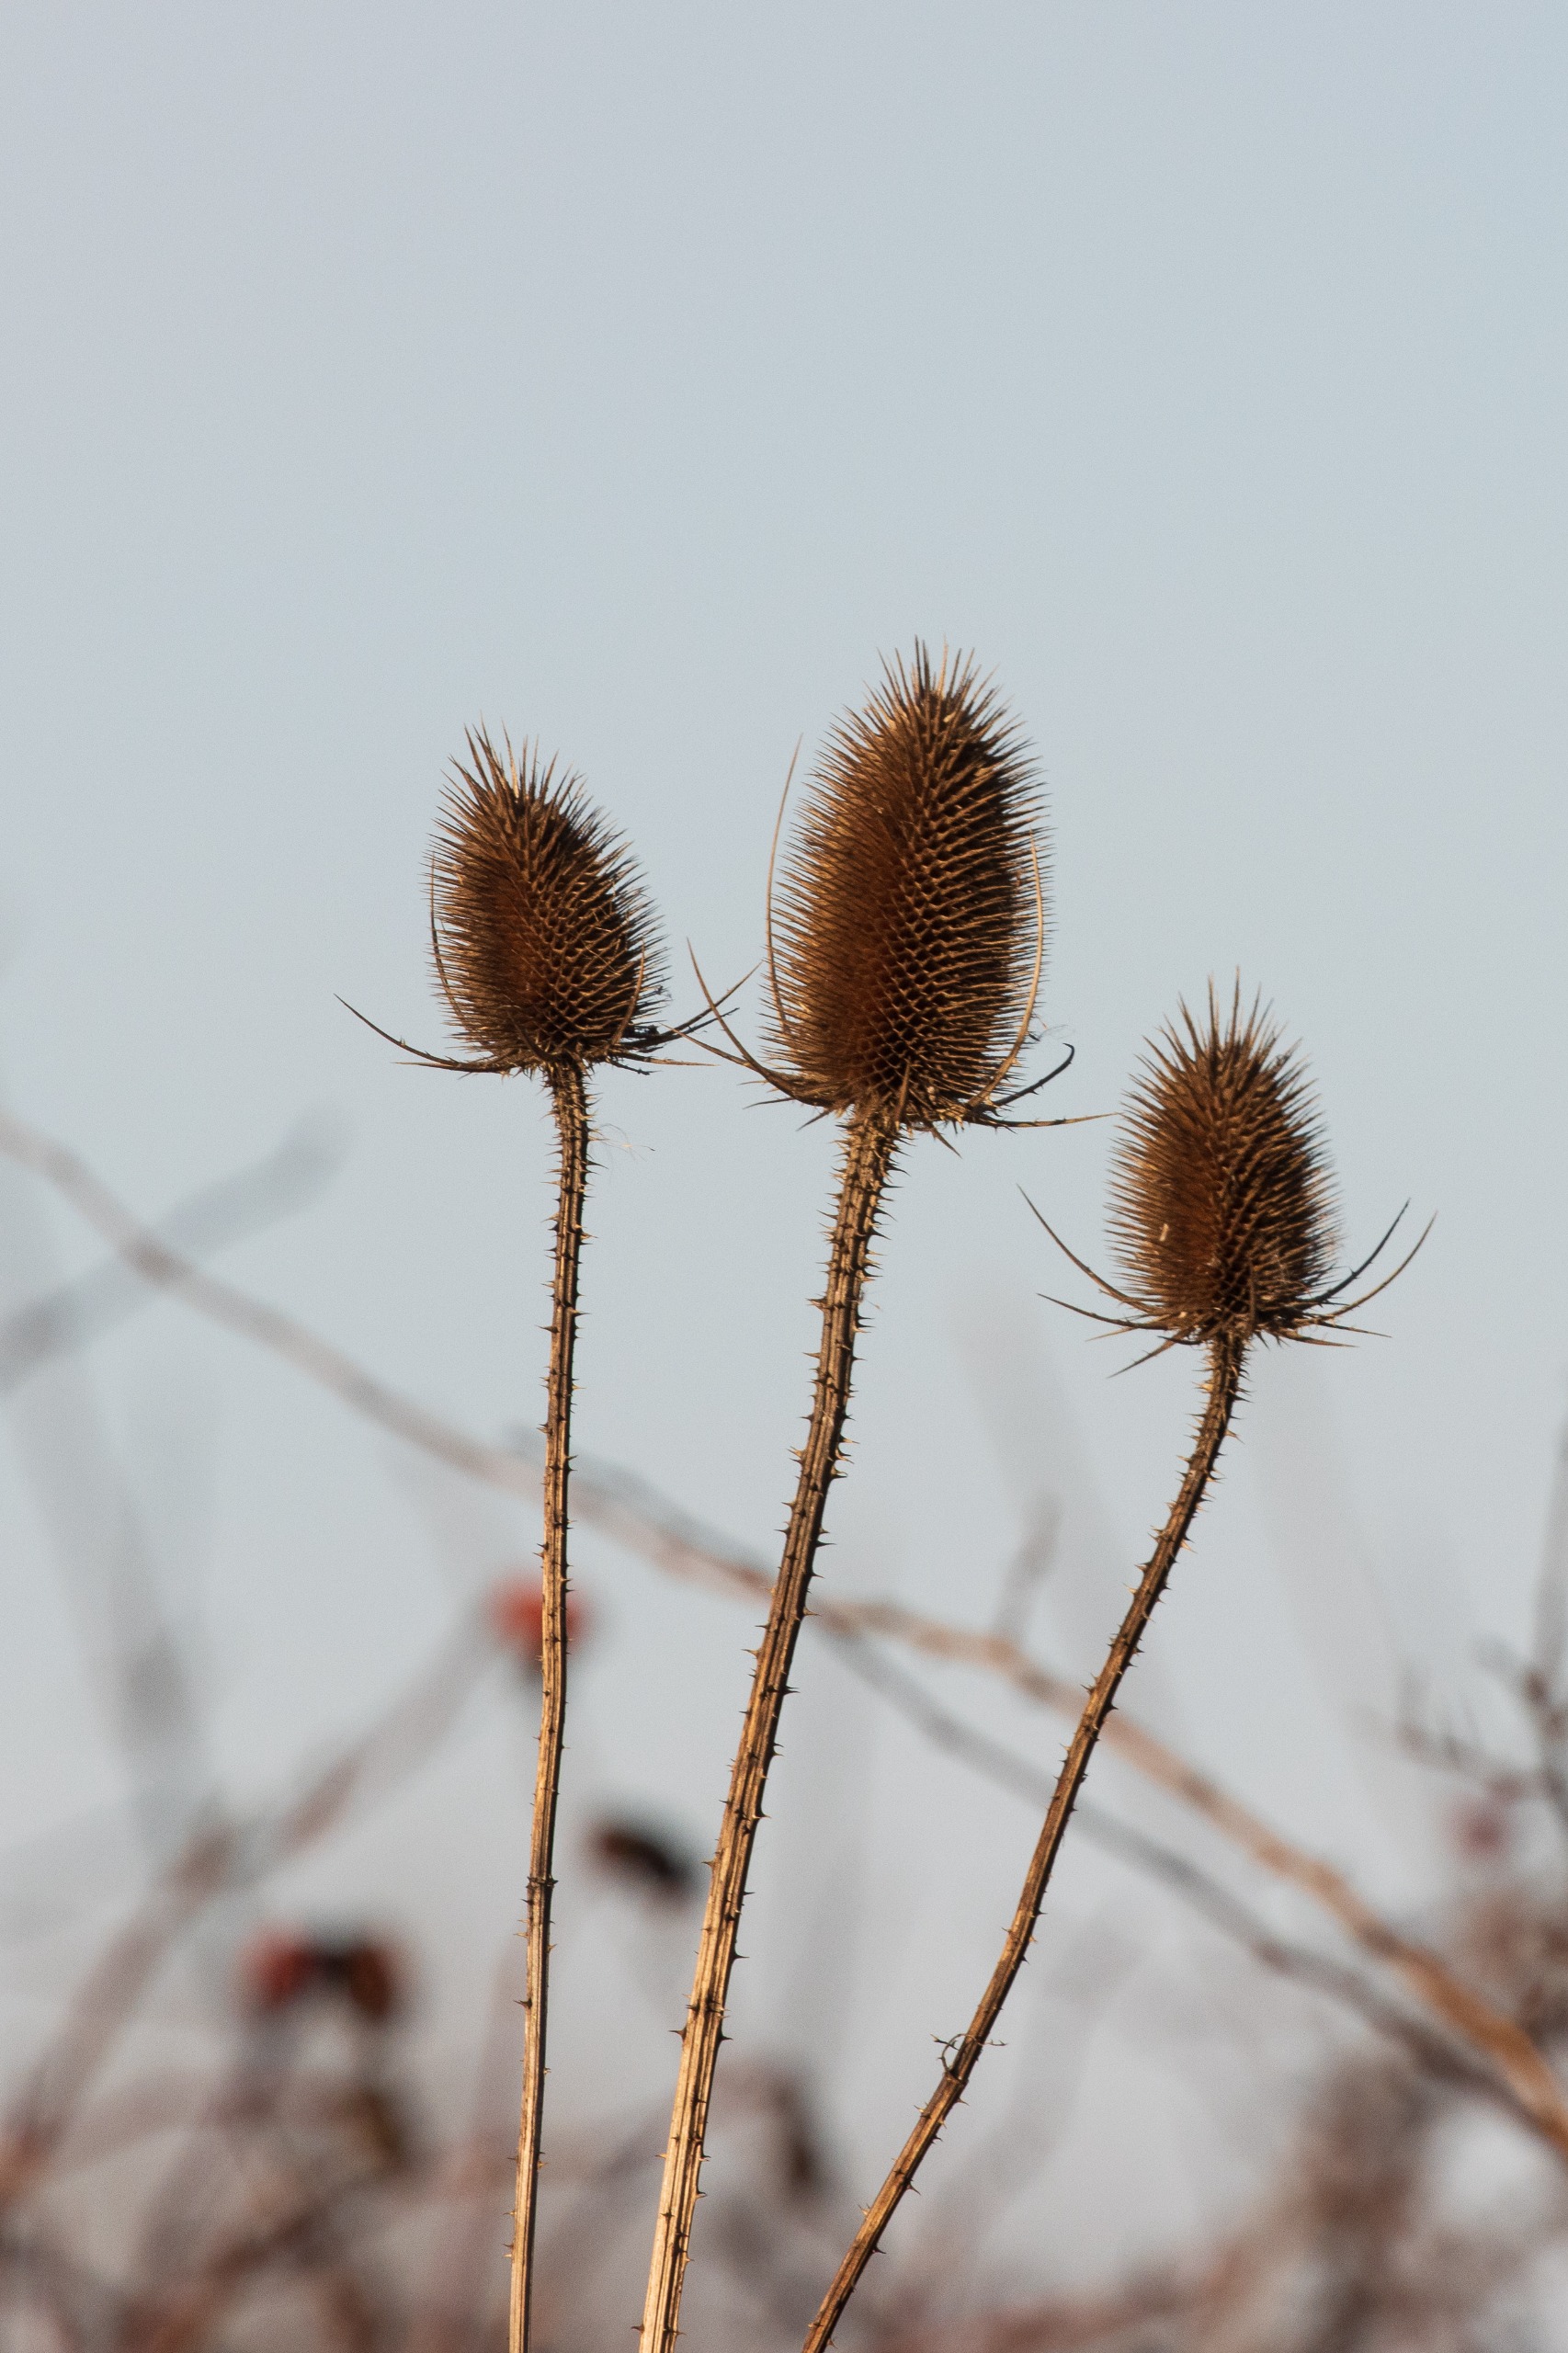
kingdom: Plantae
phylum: Tracheophyta
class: Magnoliopsida
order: Dipsacales
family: Caprifoliaceae
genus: Dipsacus
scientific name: Dipsacus fullonum
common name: Gærde-kartebolle
